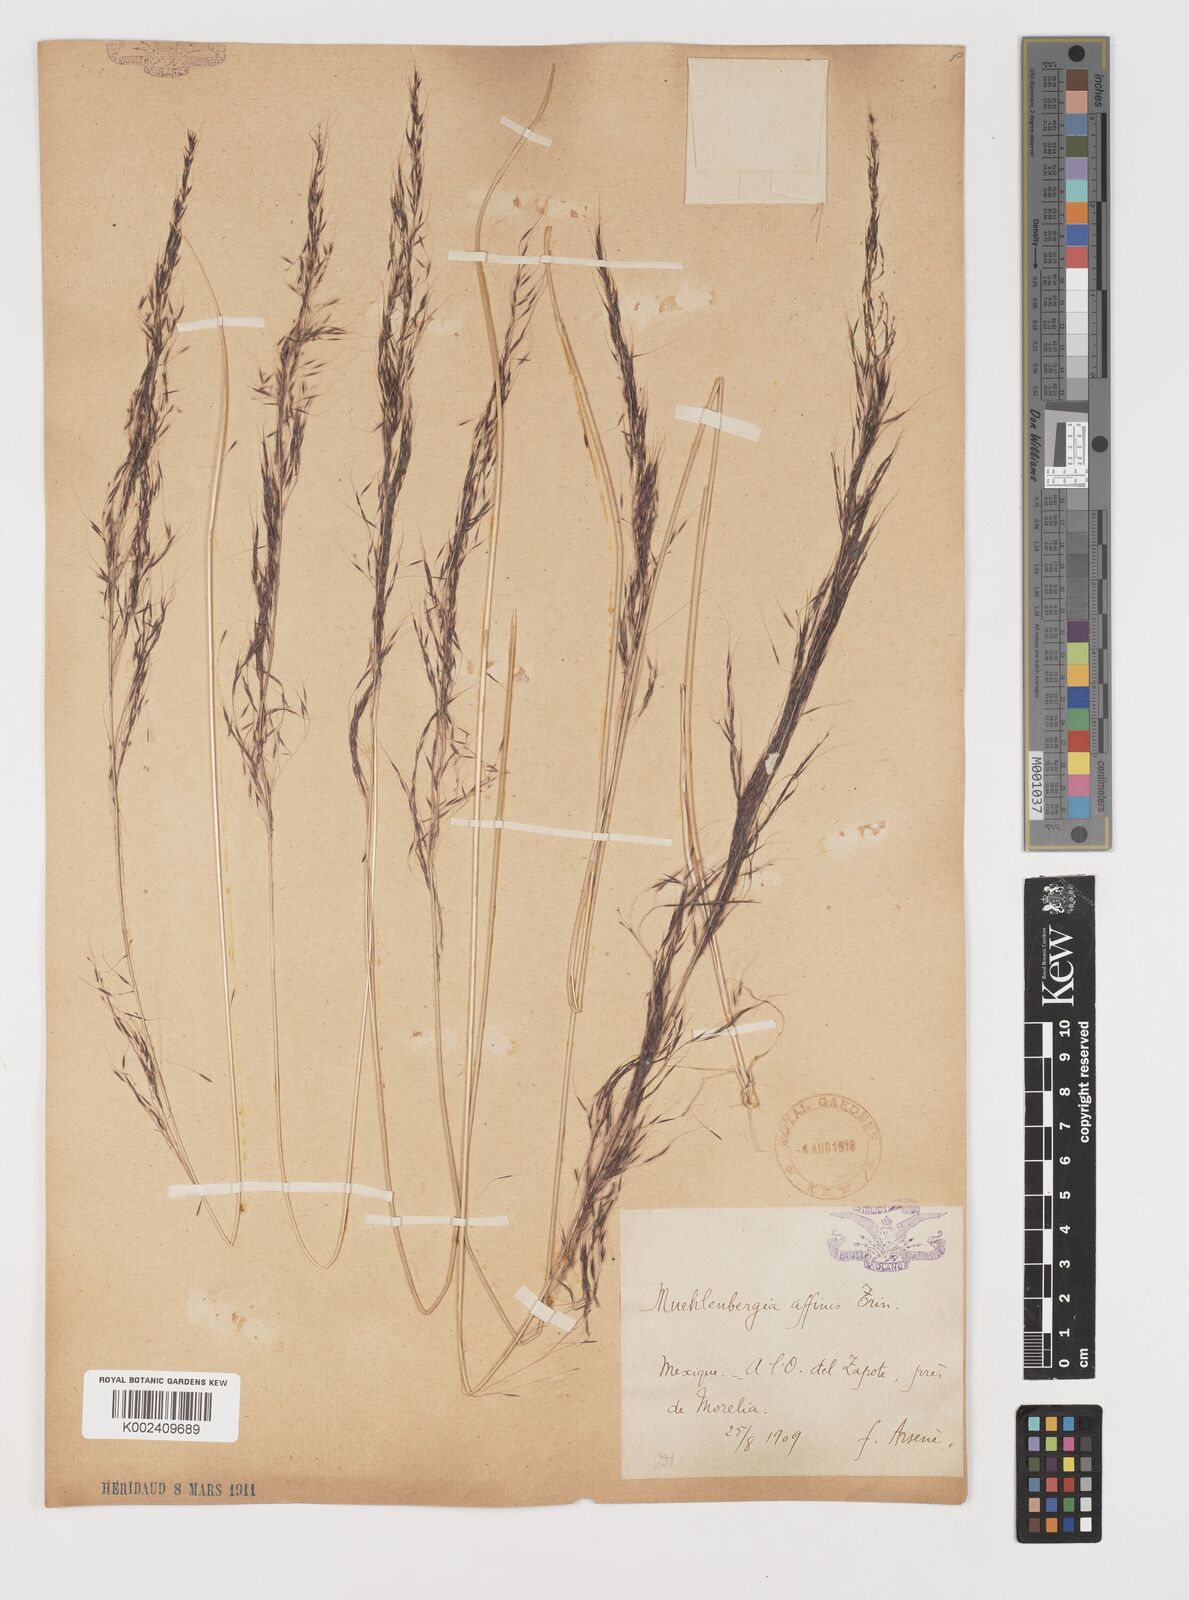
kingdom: Plantae
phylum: Tracheophyta
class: Liliopsida
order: Poales
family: Poaceae
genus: Muhlenbergia
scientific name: Muhlenbergia rigida
